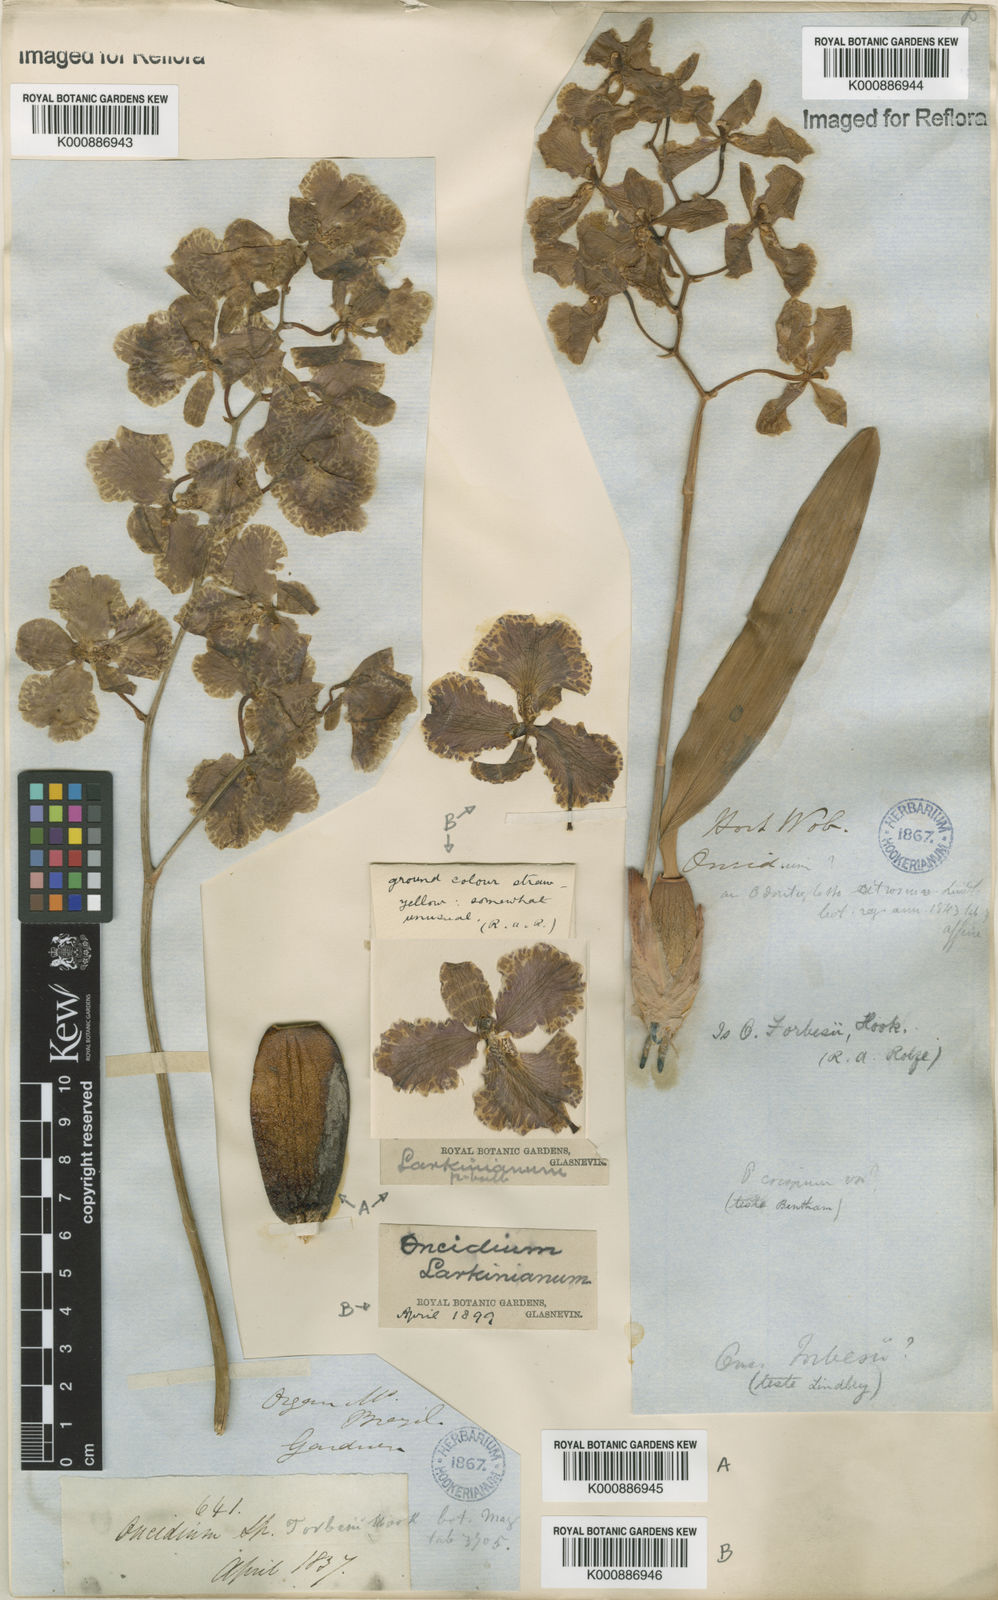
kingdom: Plantae
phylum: Tracheophyta
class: Liliopsida
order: Asparagales
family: Orchidaceae
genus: Gomesa
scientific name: Gomesa forbesii
